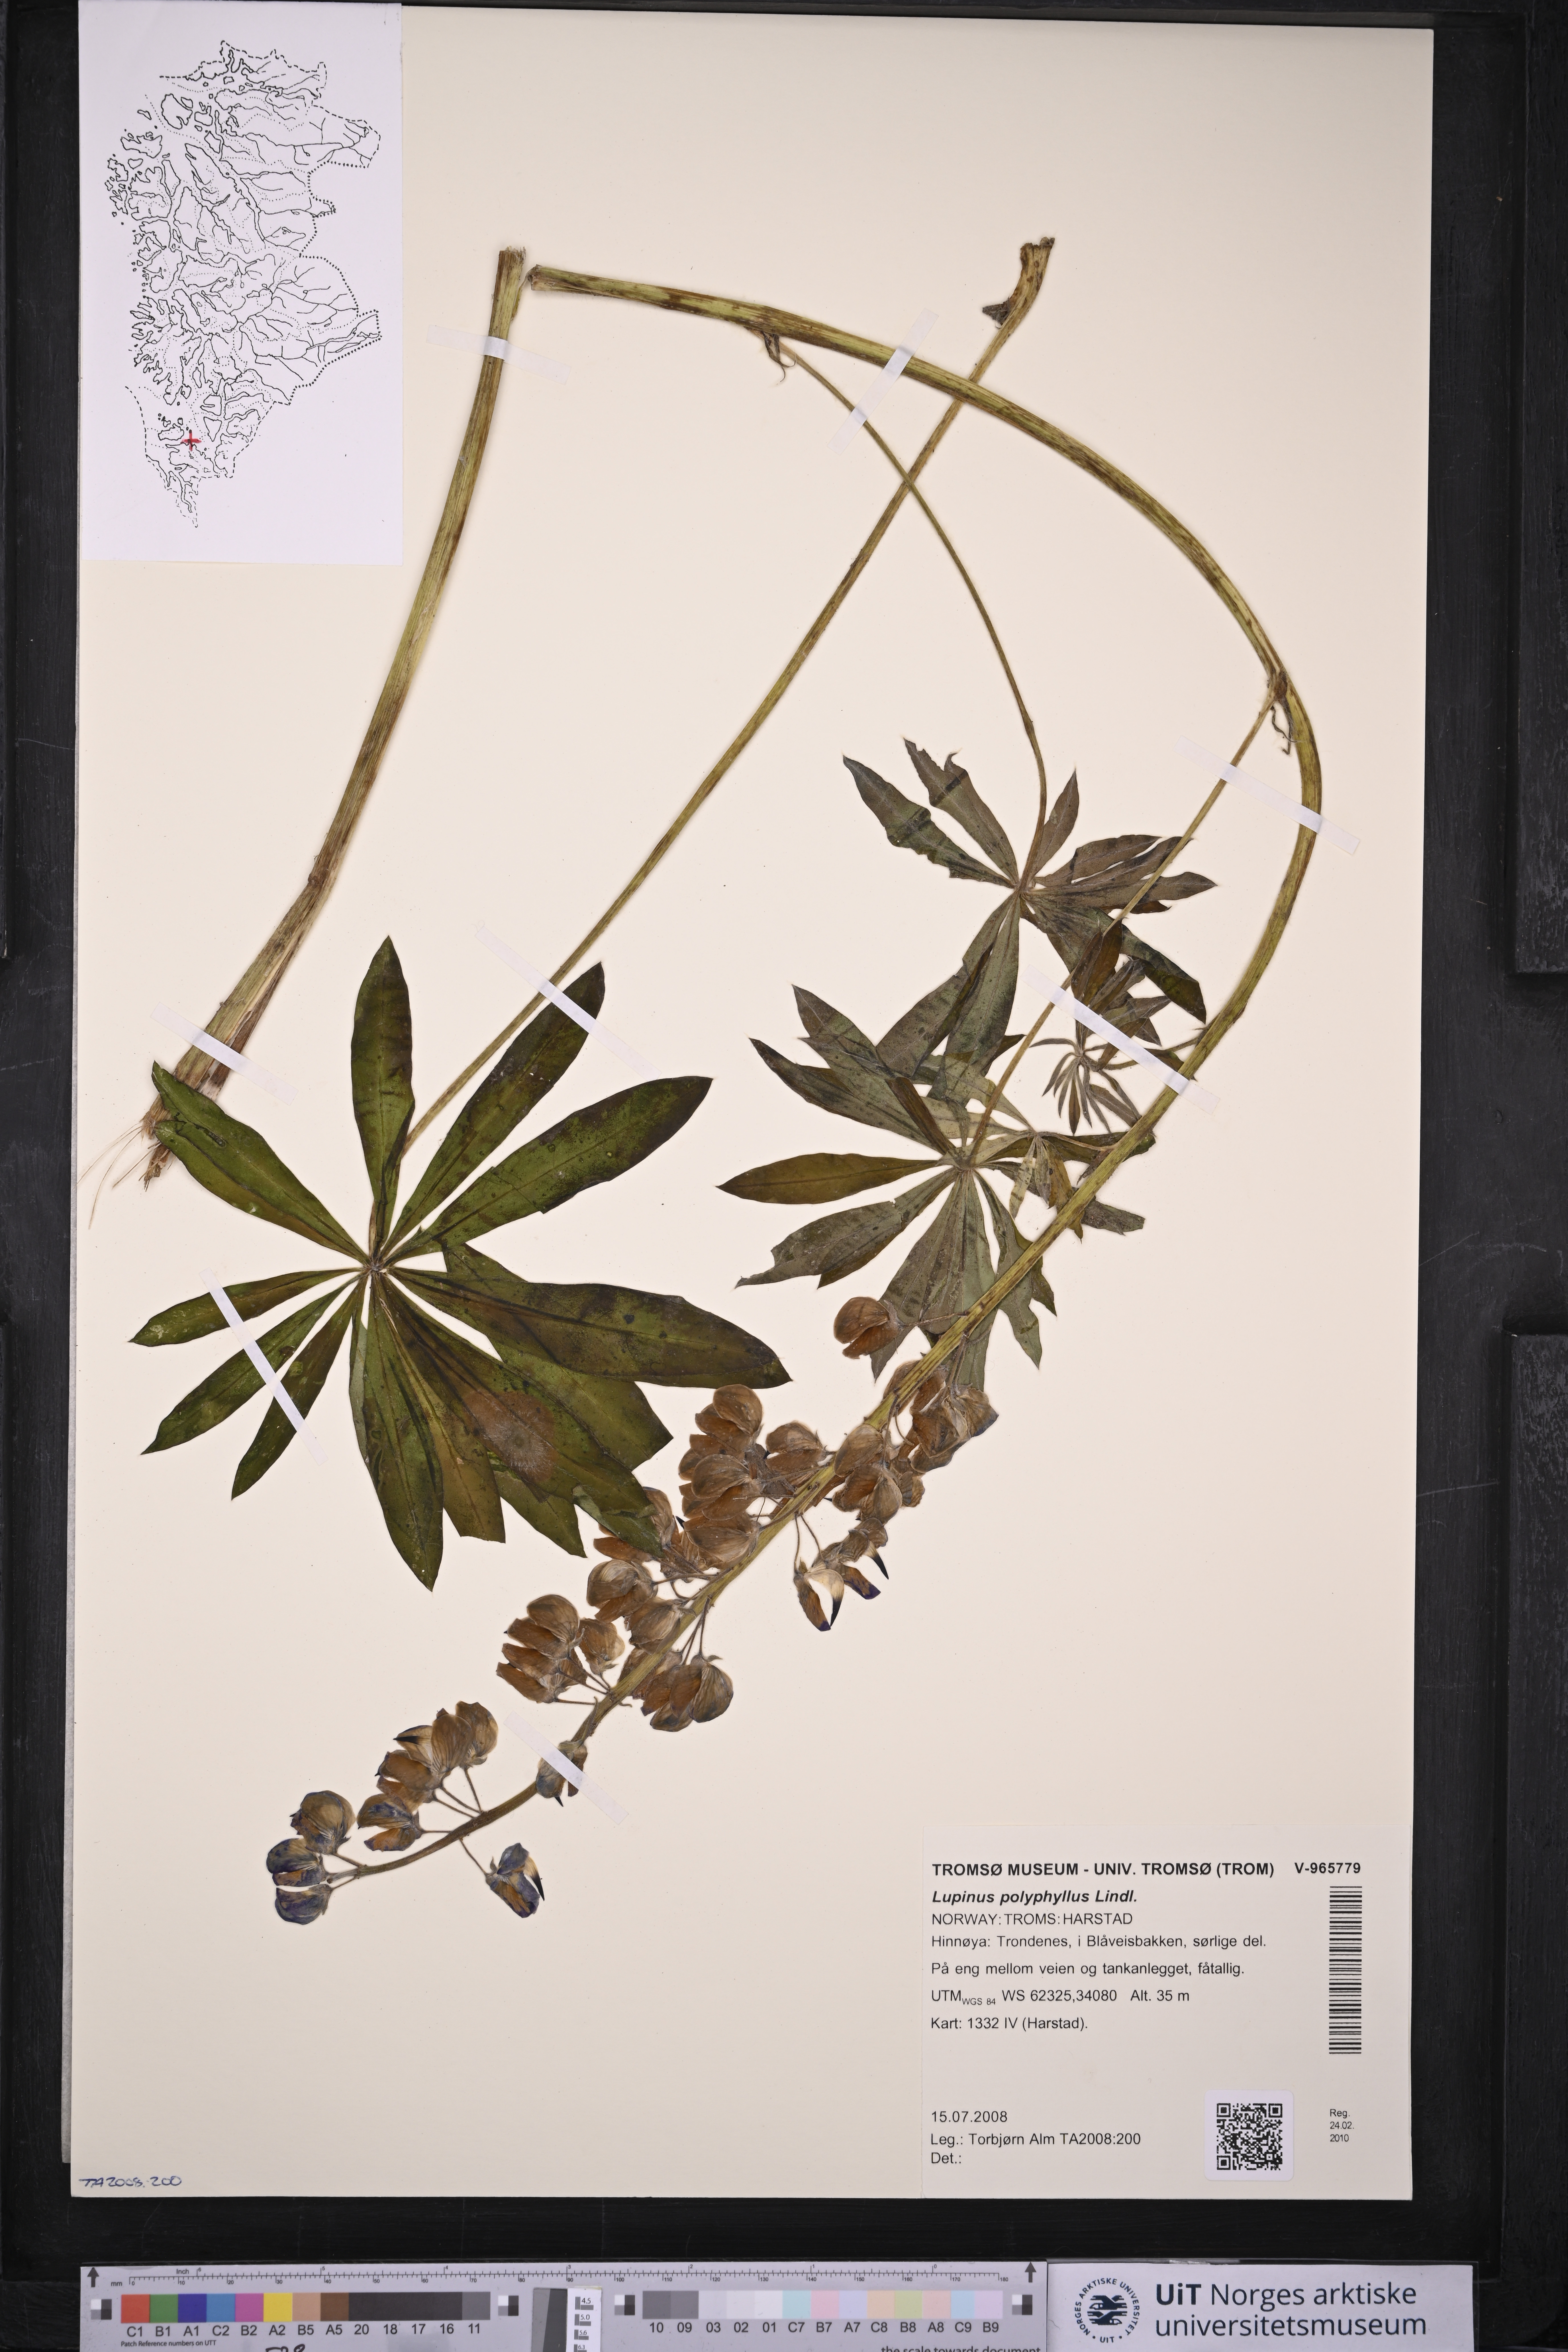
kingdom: Plantae
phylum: Tracheophyta
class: Magnoliopsida
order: Fabales
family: Fabaceae
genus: Lupinus
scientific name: Lupinus polyphyllus
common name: Garden lupin
